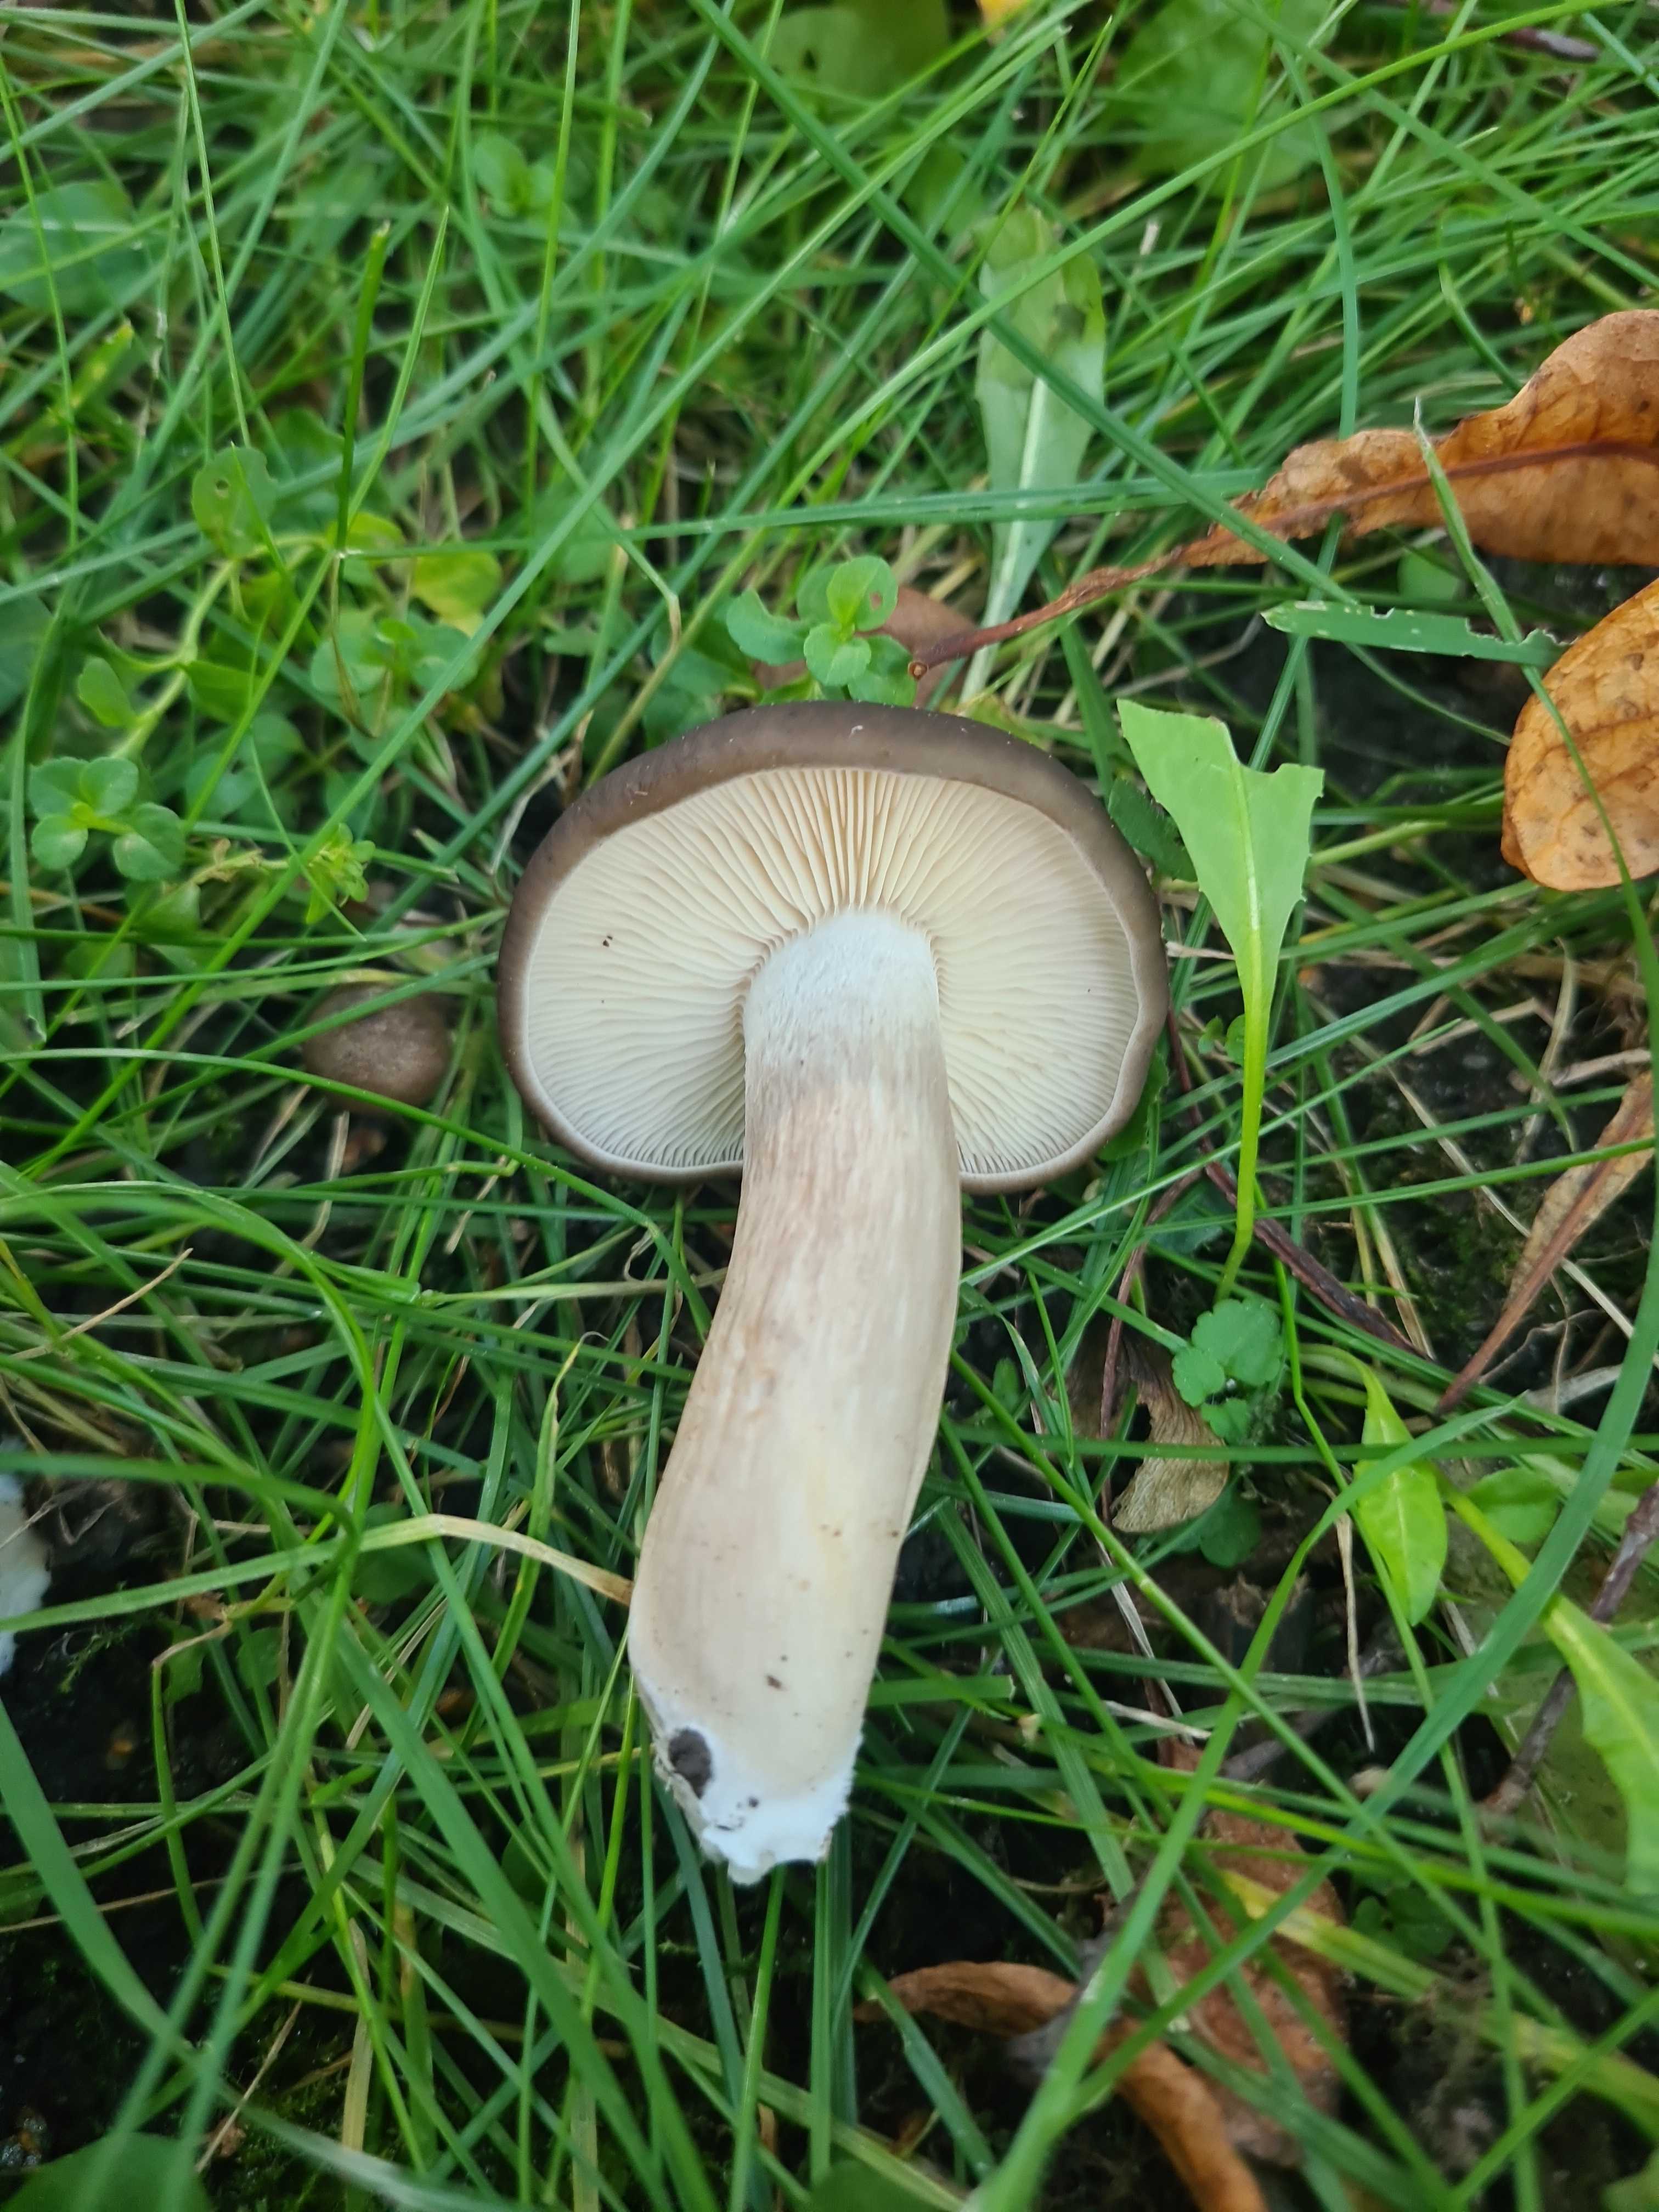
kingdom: Fungi
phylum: Basidiomycota
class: Agaricomycetes
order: Agaricales
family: Lyophyllaceae
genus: Lyophyllum
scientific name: Lyophyllum decastes
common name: røggrå gråblad
